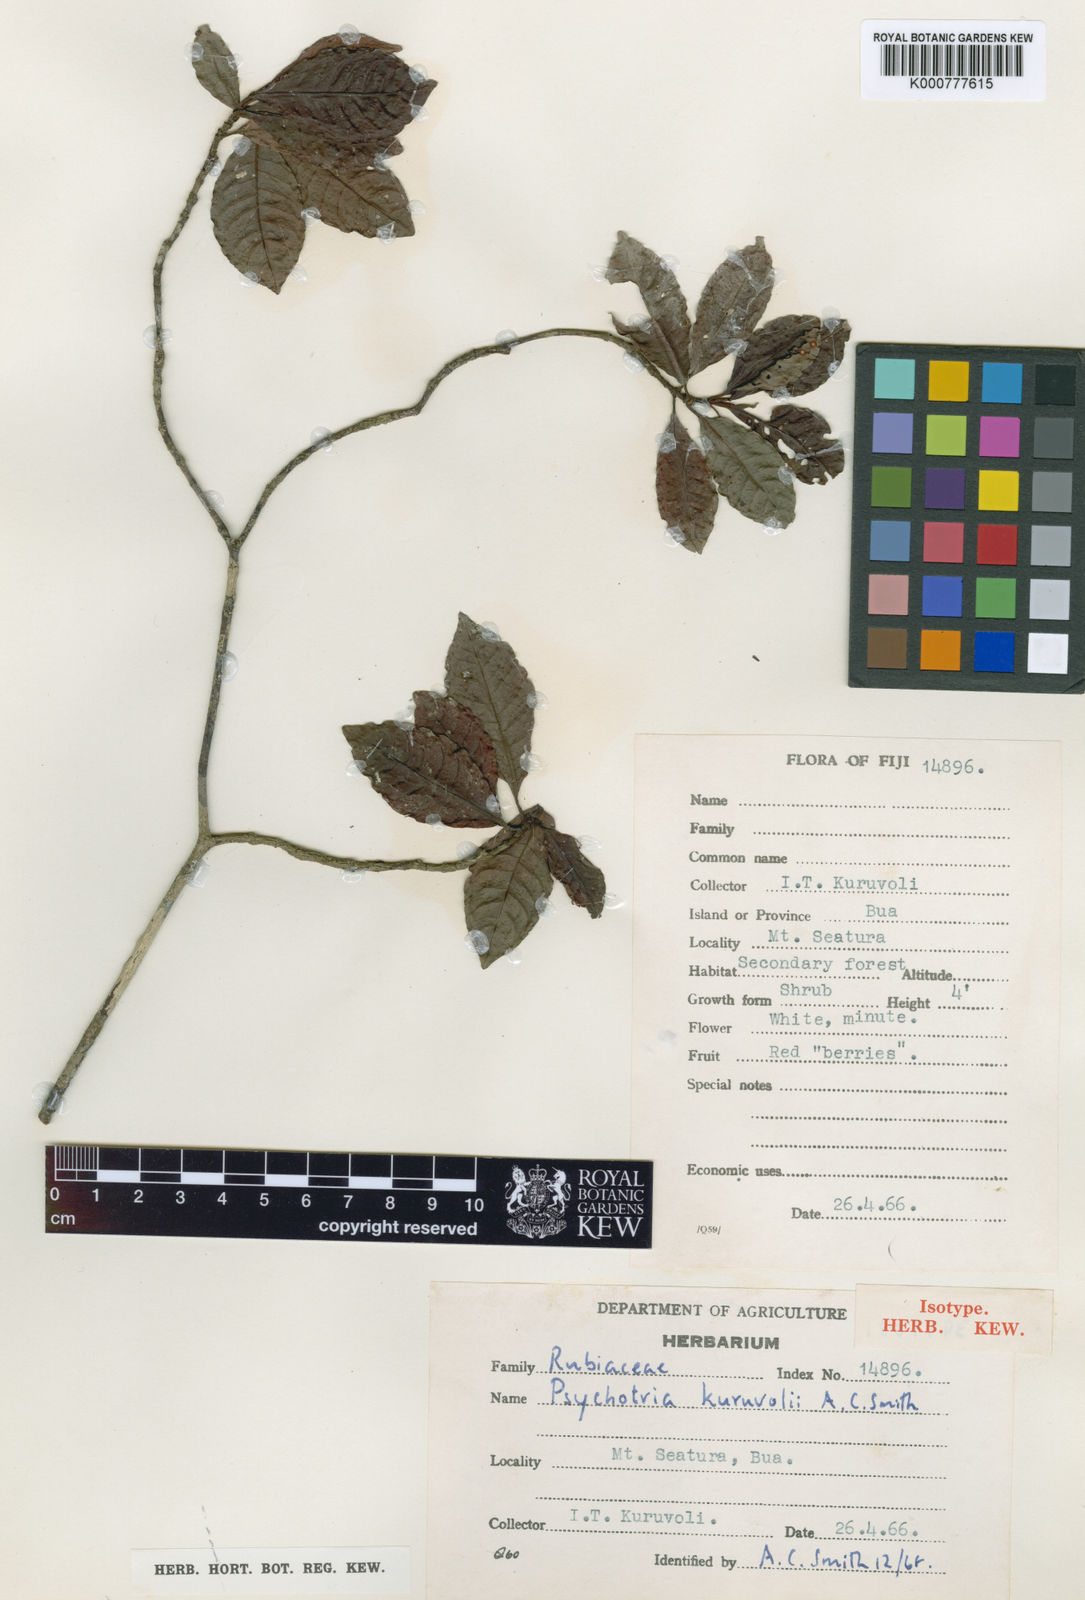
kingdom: Plantae
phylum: Tracheophyta
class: Magnoliopsida
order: Gentianales
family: Rubiaceae
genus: Psychotria
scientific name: Psychotria kuruvolii
